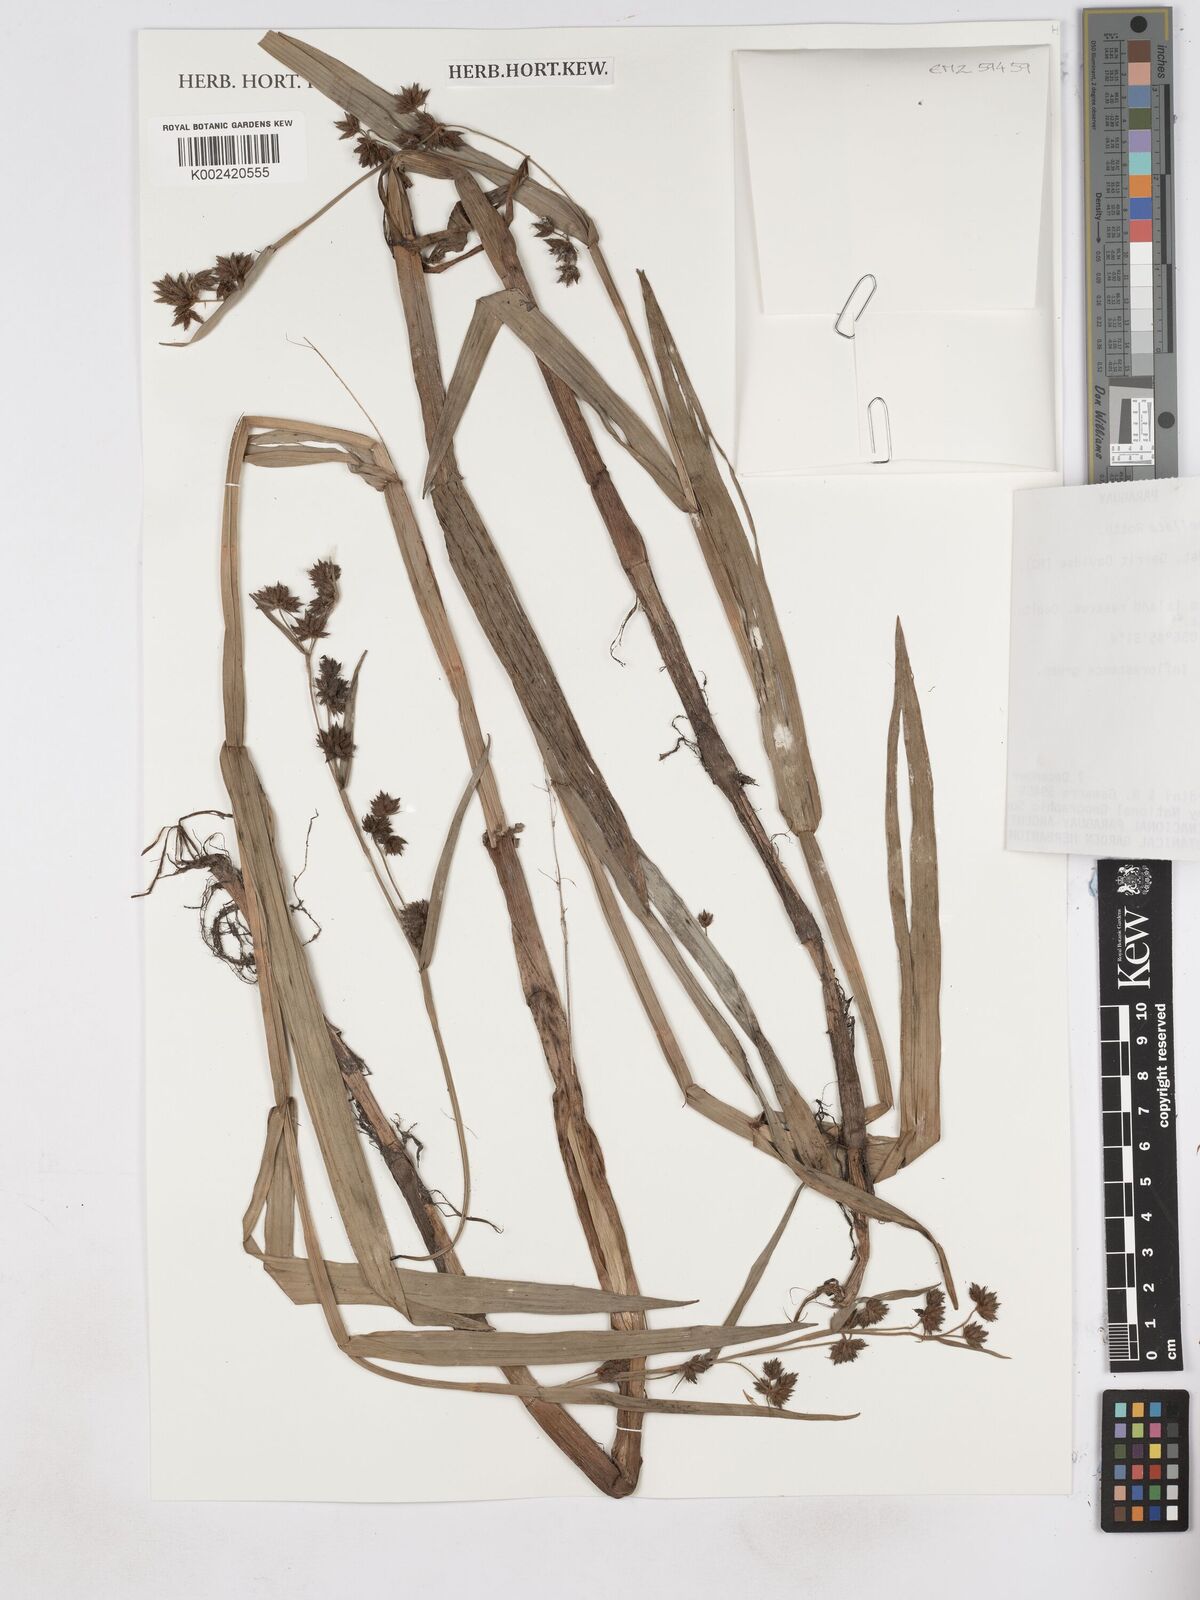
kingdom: Plantae
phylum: Tracheophyta
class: Liliopsida
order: Poales
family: Cyperaceae
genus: Fuirena
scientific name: Fuirena umbellata
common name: Yefen
